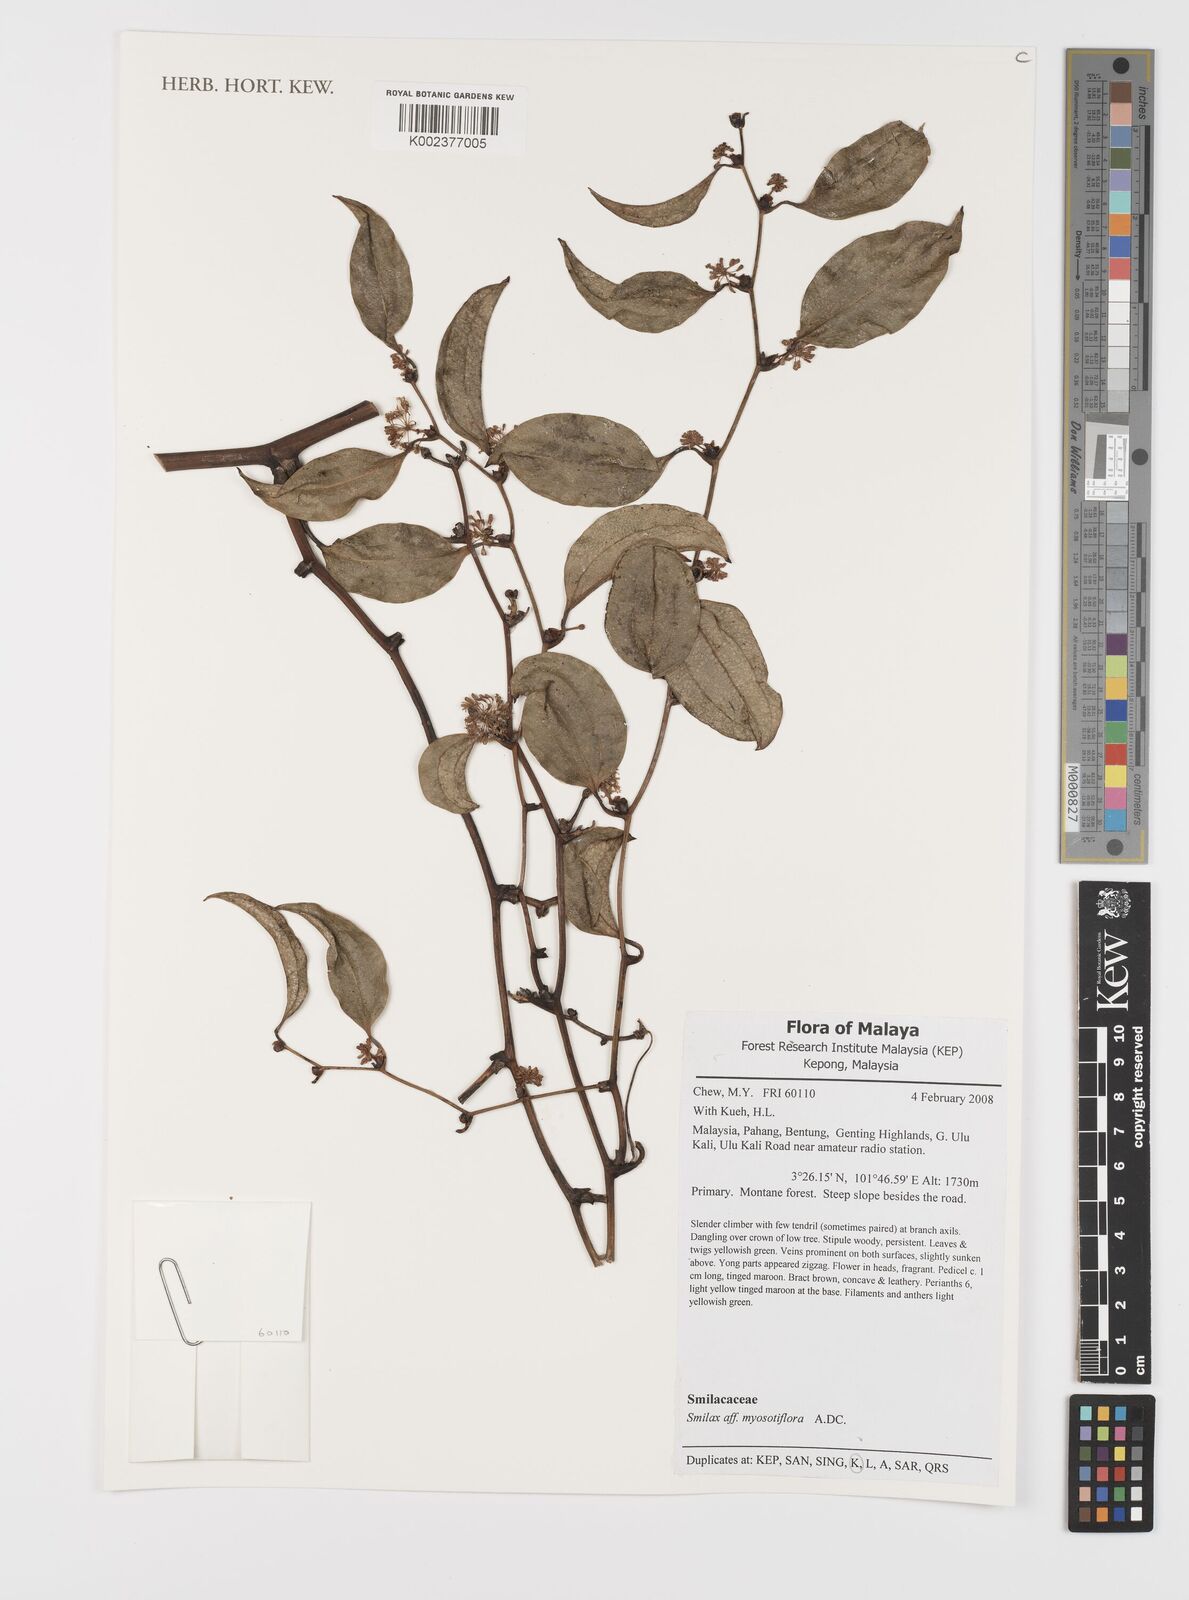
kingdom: Plantae
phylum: Tracheophyta
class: Liliopsida
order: Liliales
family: Smilacaceae
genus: Smilax
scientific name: Smilax myosotiflora
